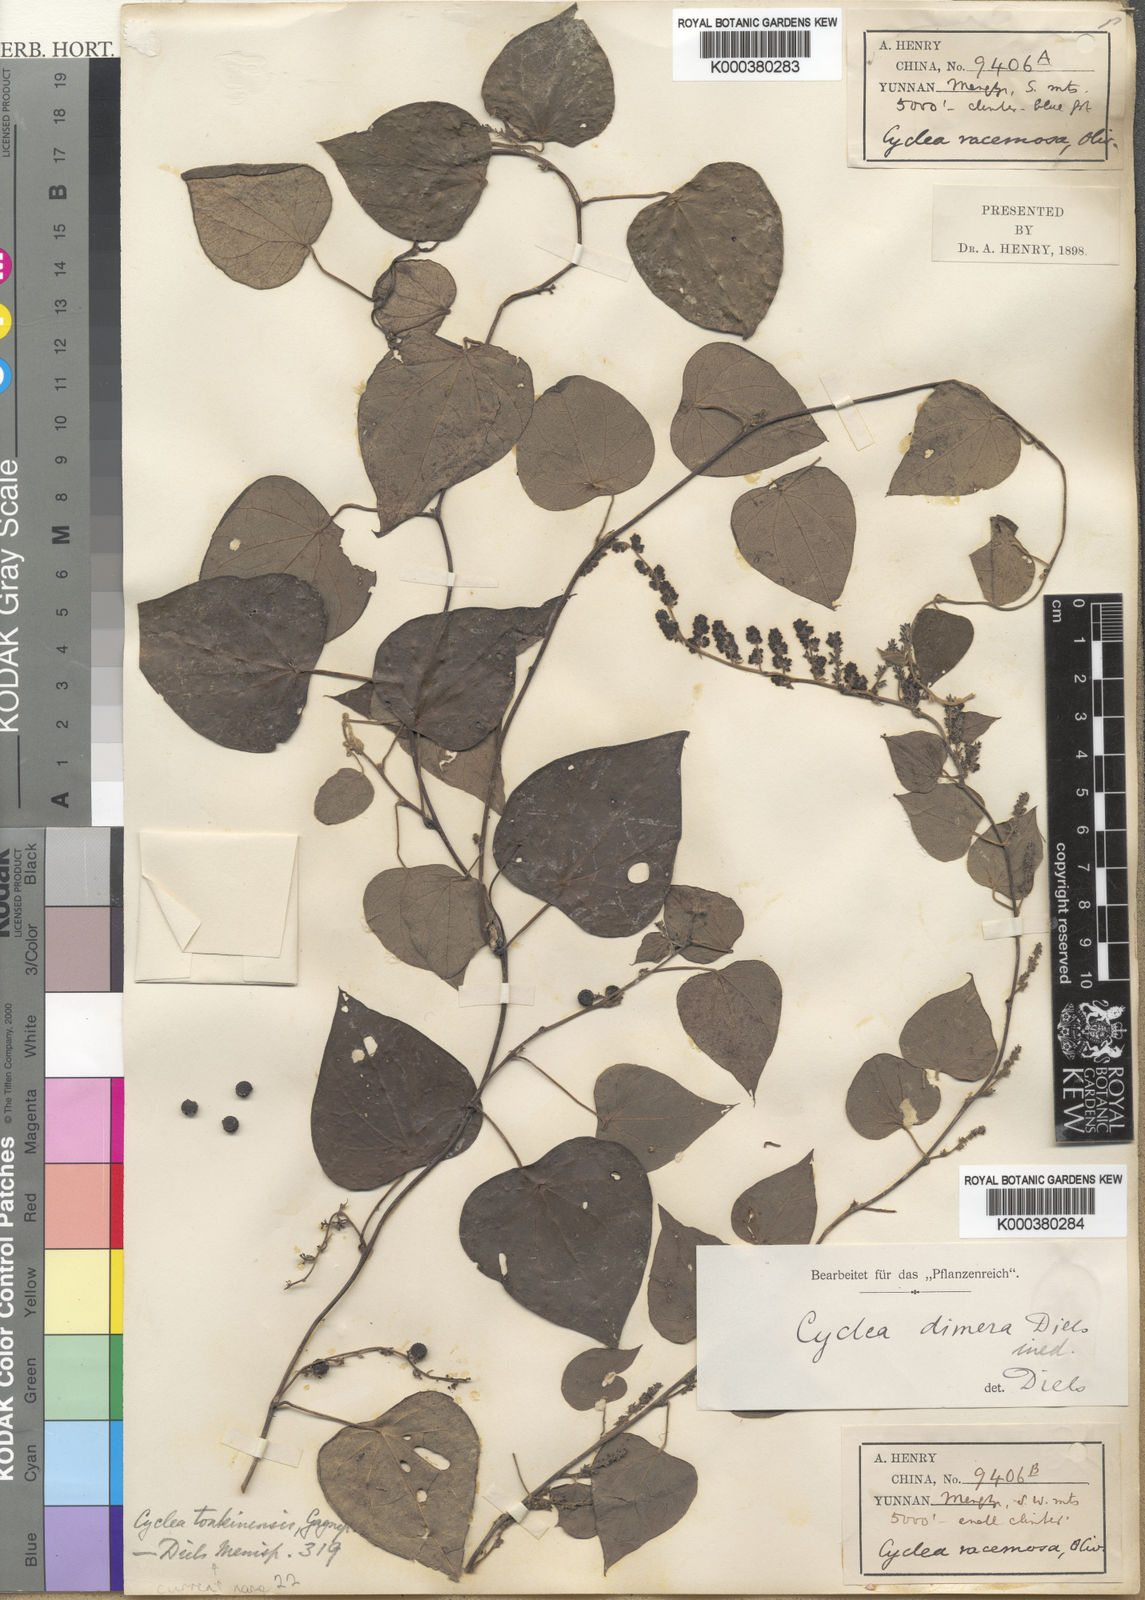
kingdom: Plantae
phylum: Tracheophyta
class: Magnoliopsida
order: Ranunculales
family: Menispermaceae
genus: Cyclea
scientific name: Cyclea tonkinensis
